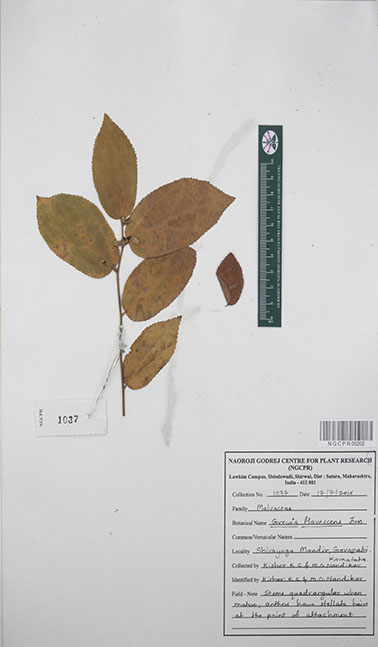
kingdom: Plantae
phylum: Tracheophyta
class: Magnoliopsida
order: Malvales
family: Malvaceae
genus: Grewia
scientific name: Grewia flavescens
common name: Sandpaper raisin
